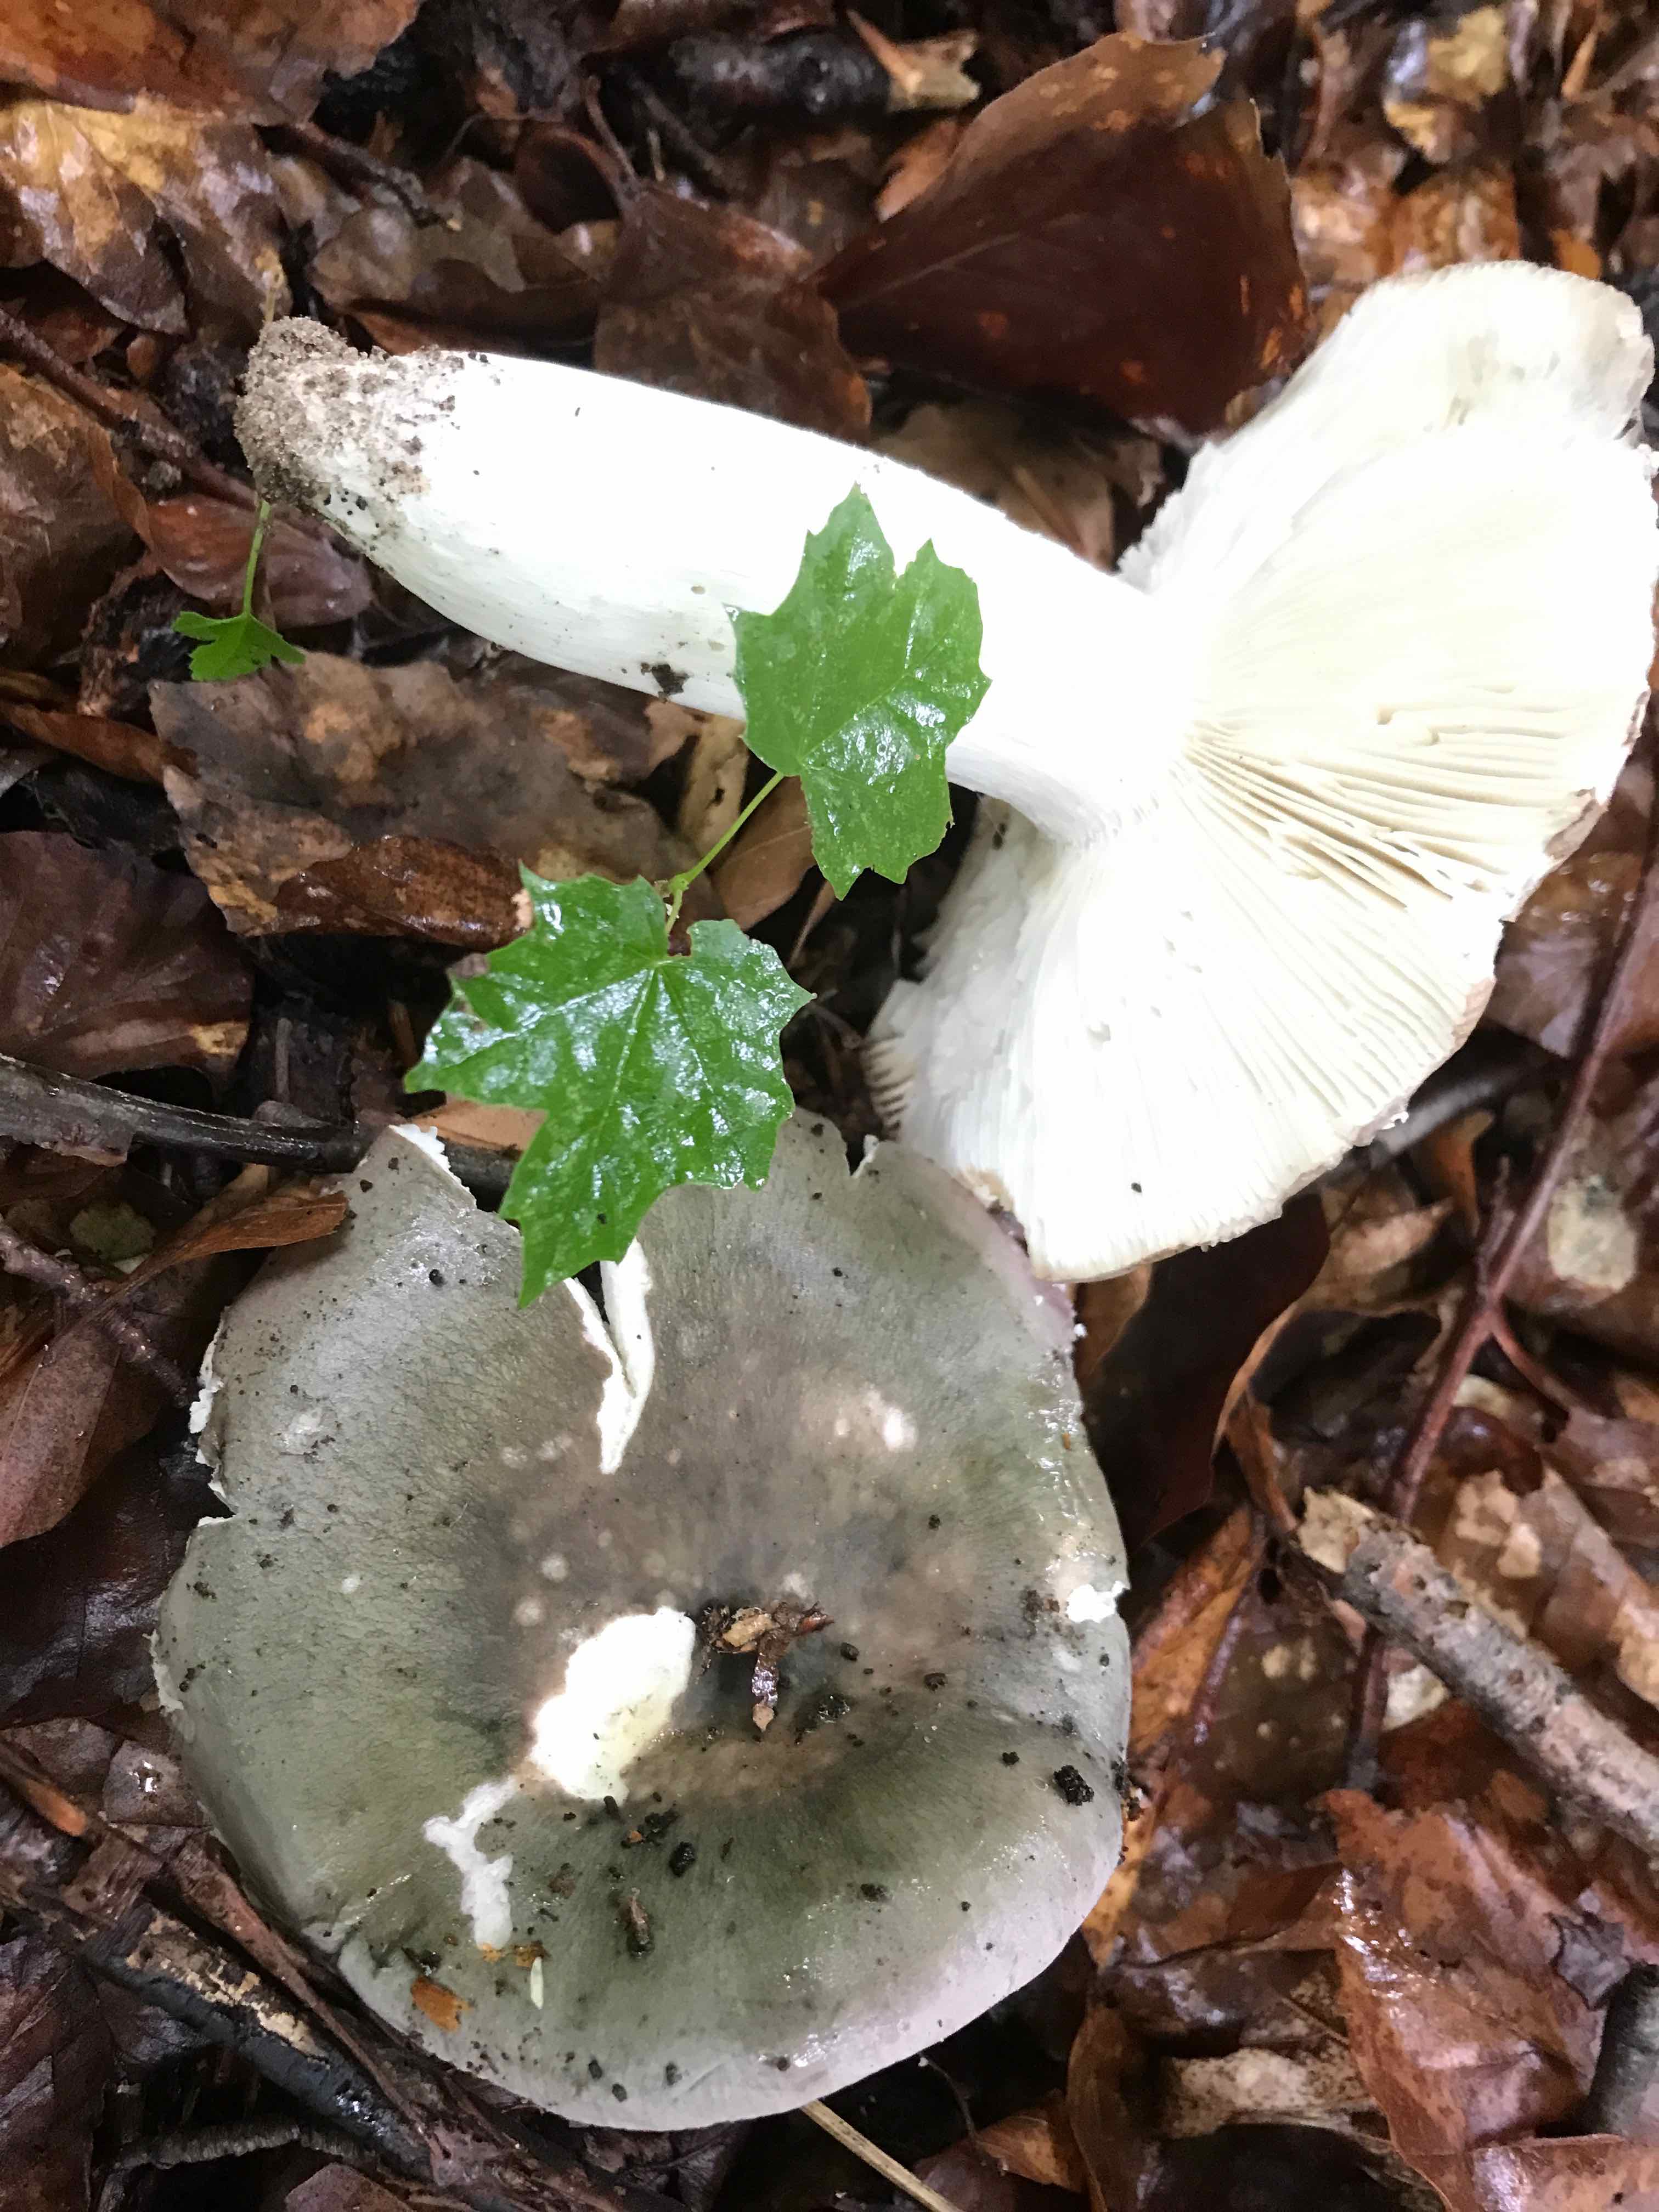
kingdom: Fungi
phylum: Basidiomycota
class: Agaricomycetes
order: Russulales
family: Russulaceae
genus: Russula
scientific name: Russula cyanoxantha
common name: broget skørhat
